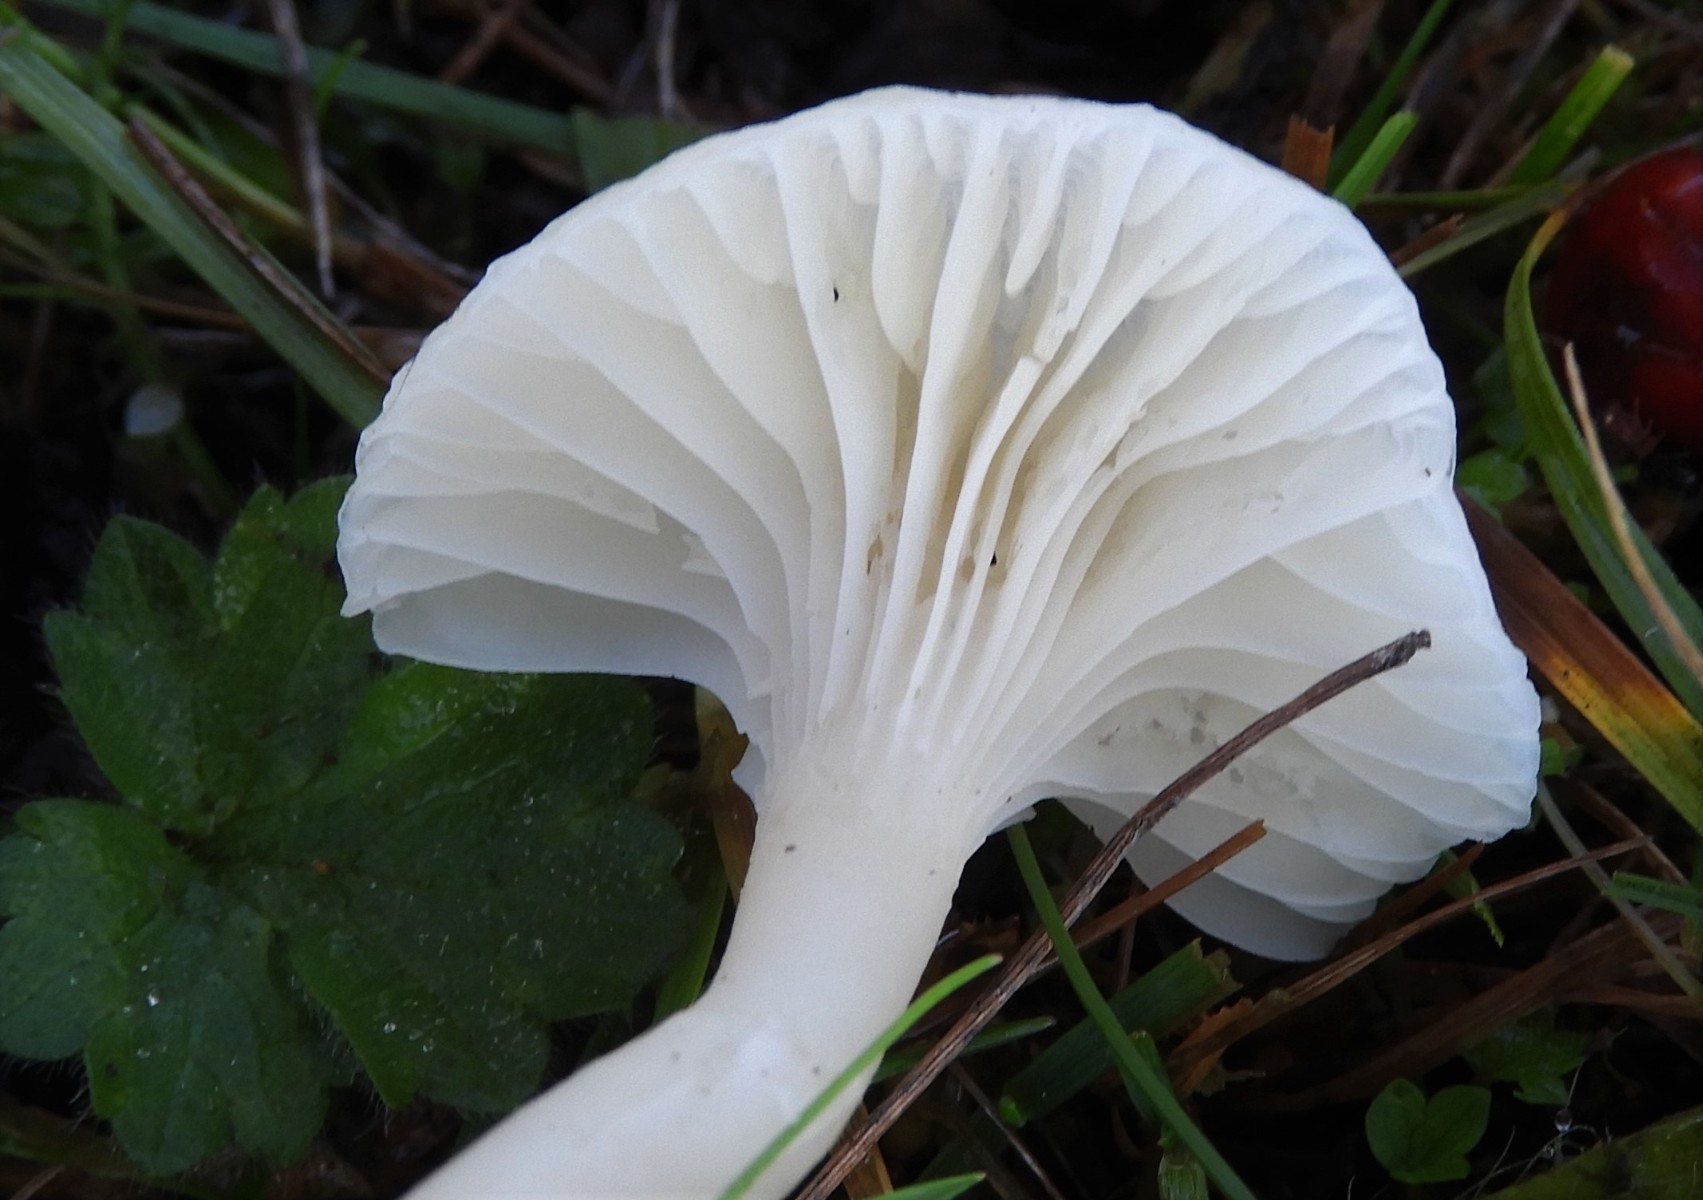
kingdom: Fungi
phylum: Basidiomycota
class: Agaricomycetes
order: Agaricales
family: Hygrophoraceae
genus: Cuphophyllus
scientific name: Cuphophyllus virgineus
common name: snehvid vokshat
